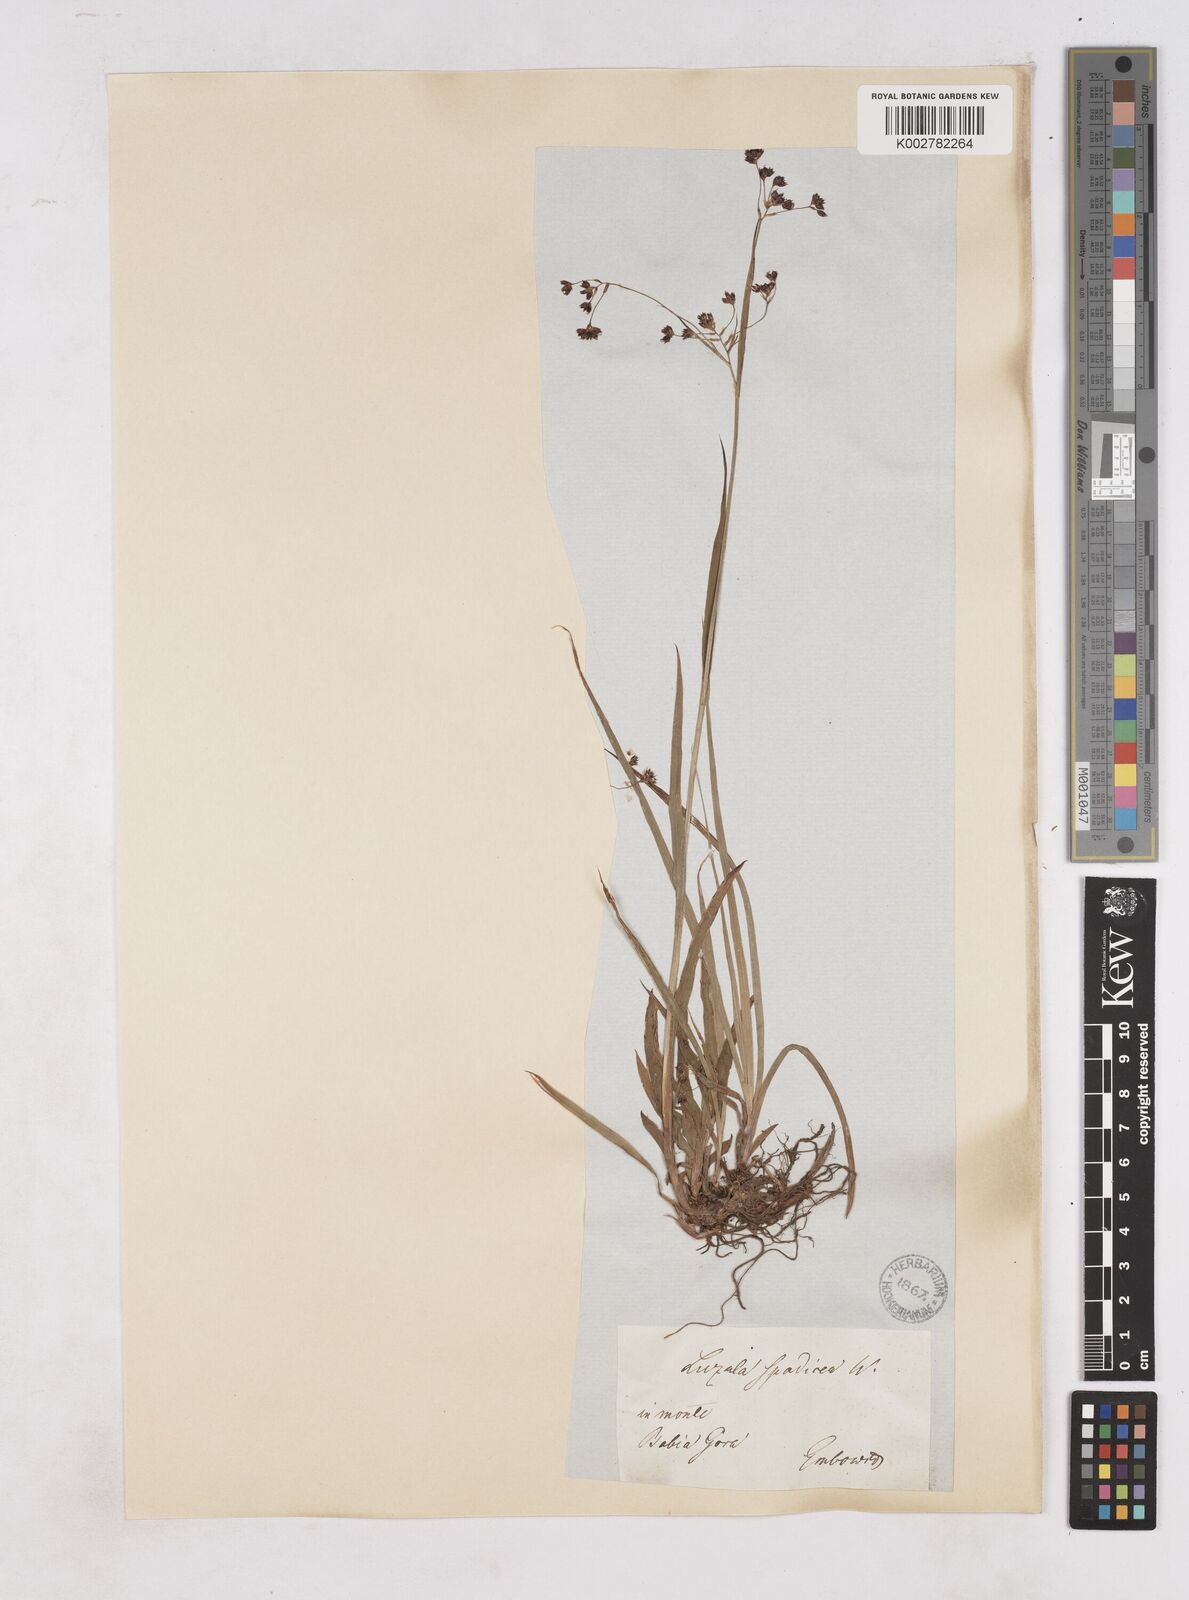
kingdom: Plantae
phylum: Tracheophyta
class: Liliopsida
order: Poales
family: Juncaceae
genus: Luzula
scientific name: Luzula alpinopilosa
